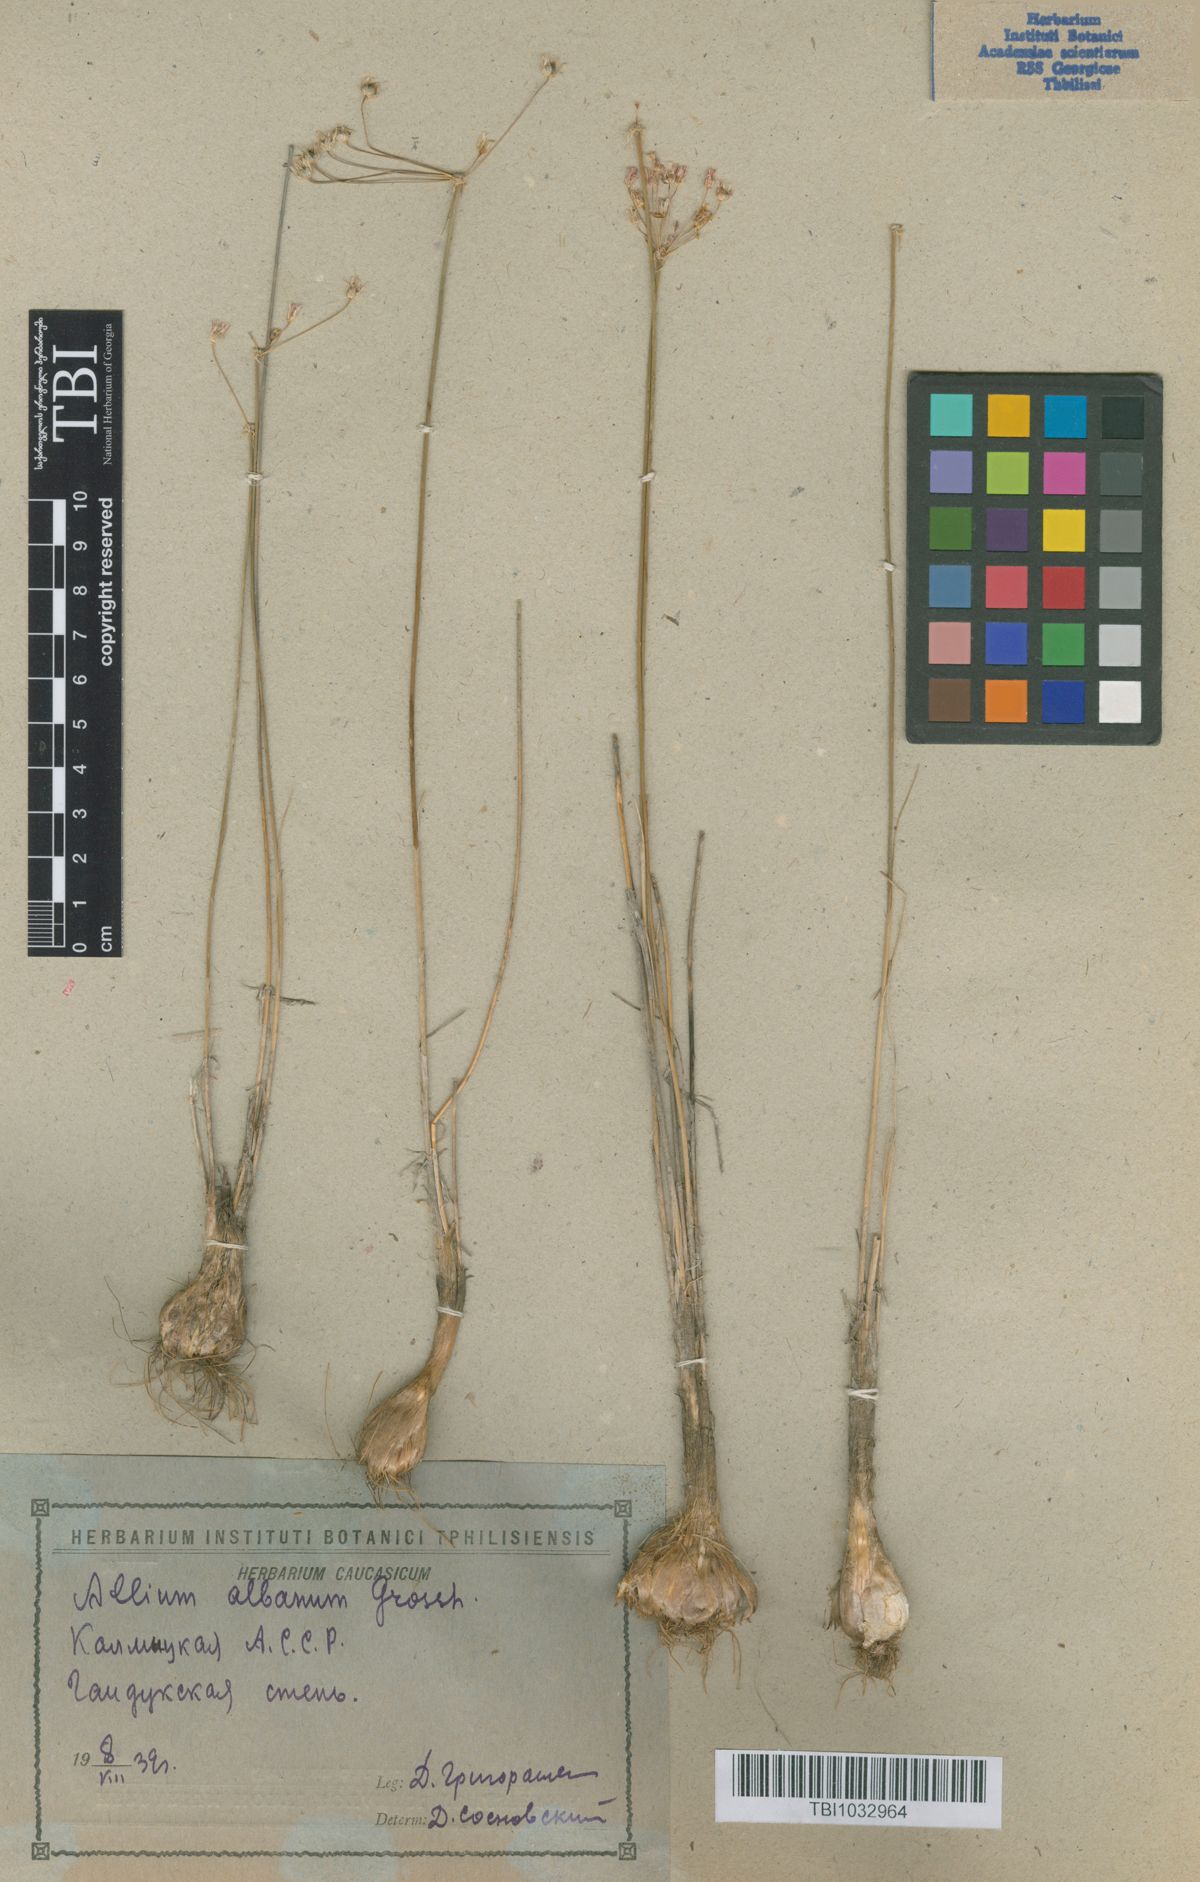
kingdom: Plantae
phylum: Tracheophyta
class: Liliopsida
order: Asparagales
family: Amaryllidaceae
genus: Allium
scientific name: Allium rubellum
